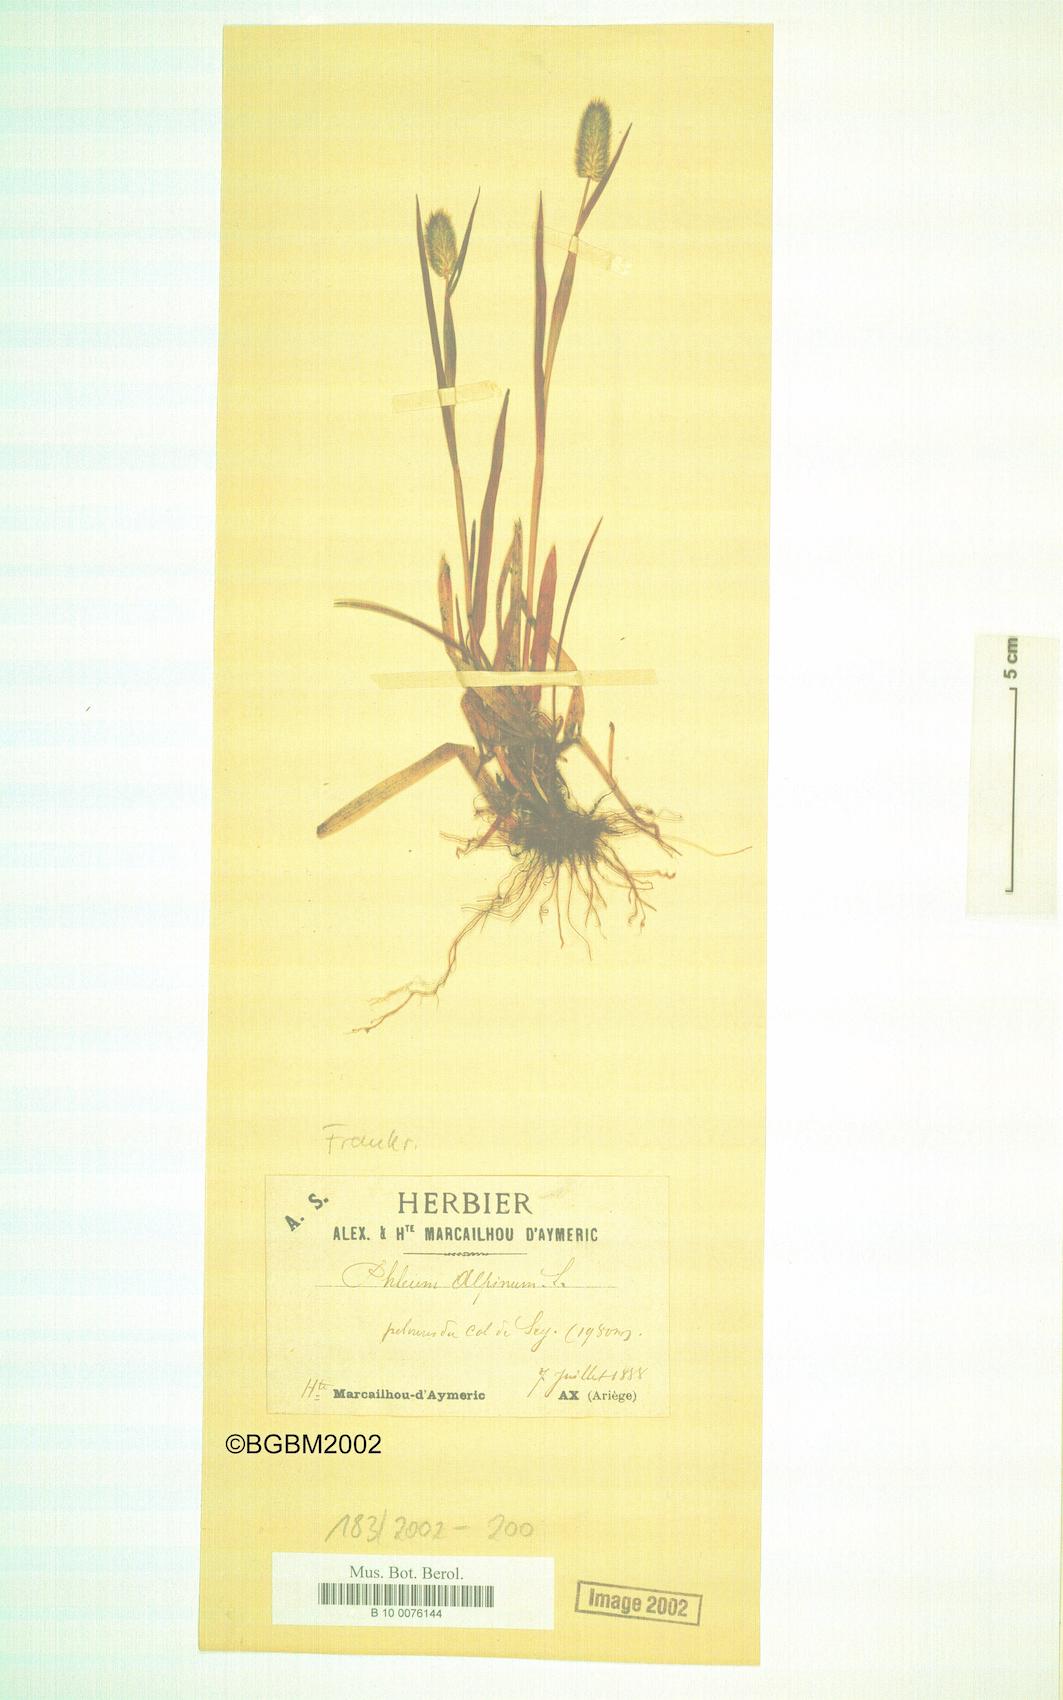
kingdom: Plantae
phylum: Tracheophyta
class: Liliopsida
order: Poales
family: Poaceae
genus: Phleum
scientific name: Phleum alpinum
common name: Alpine cat's-tail
